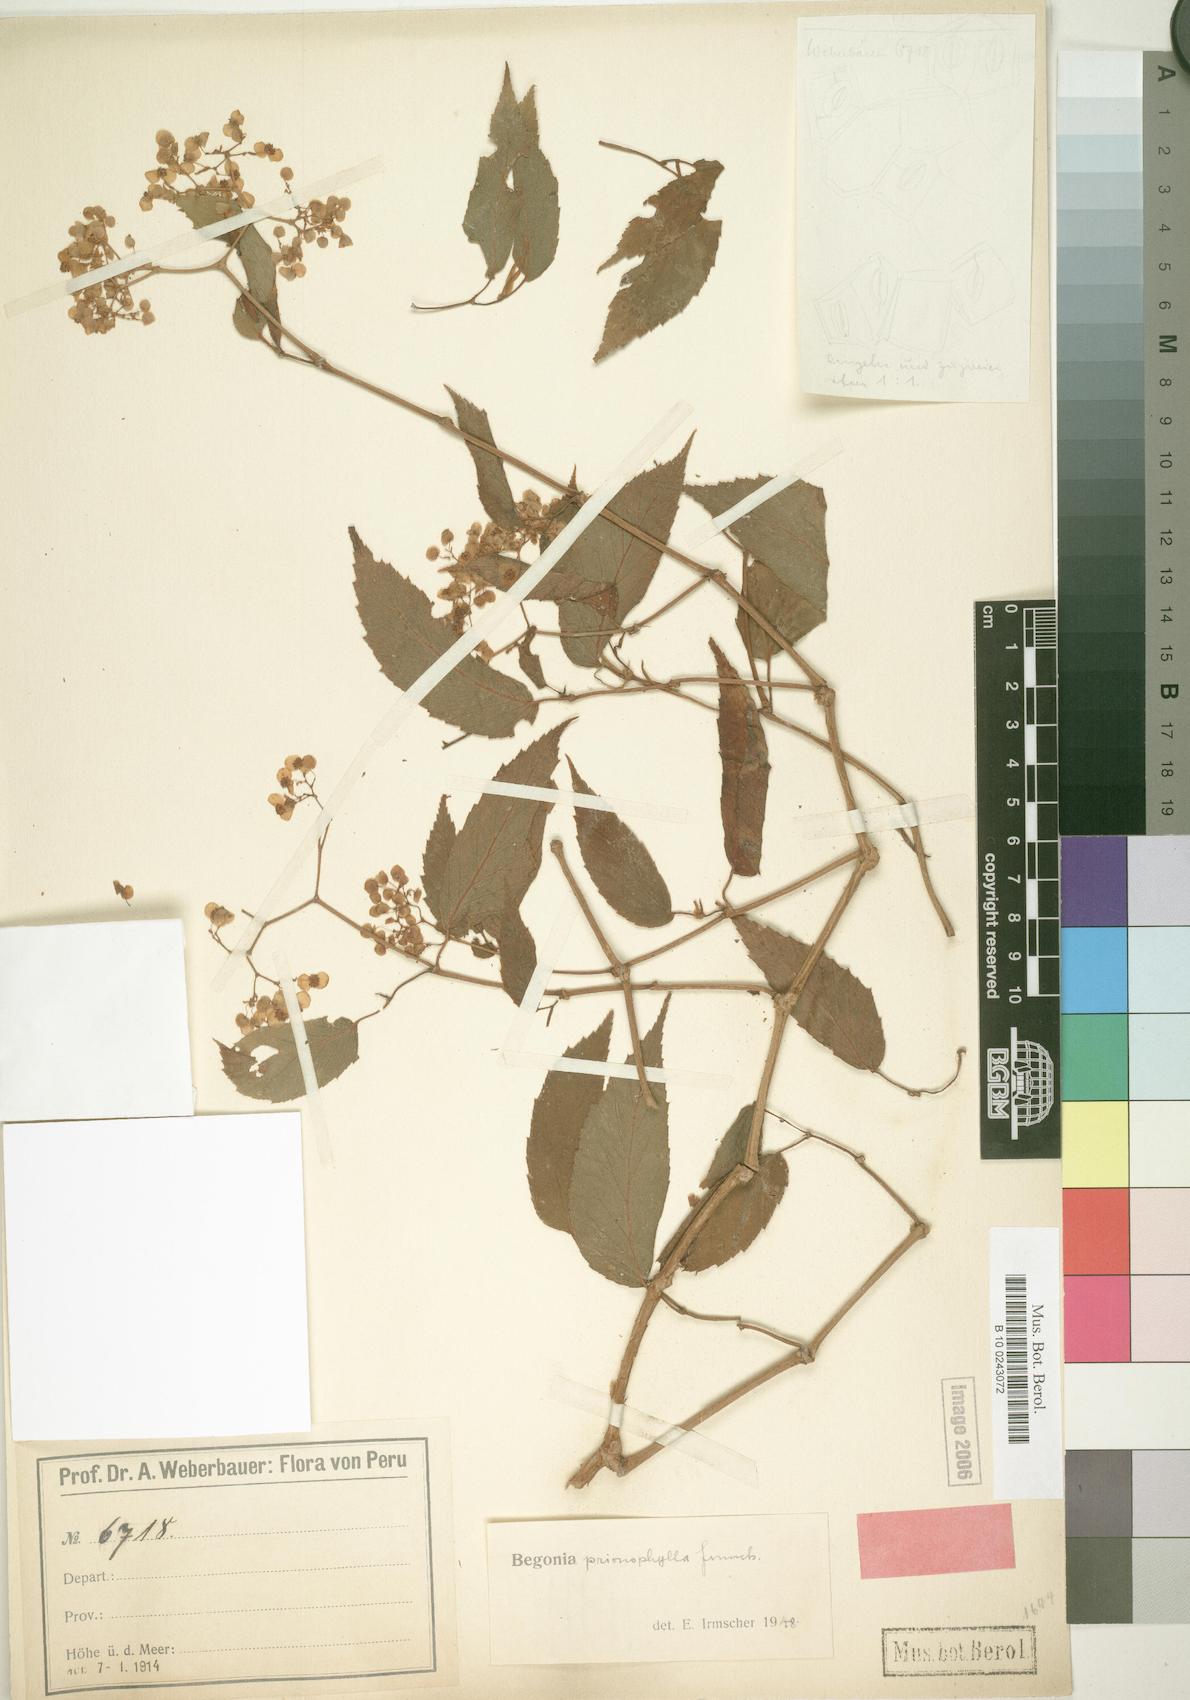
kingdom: Plantae
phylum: Tracheophyta
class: Magnoliopsida
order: Cucurbitales
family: Begoniaceae
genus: Begonia
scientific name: Begonia prionophylla
